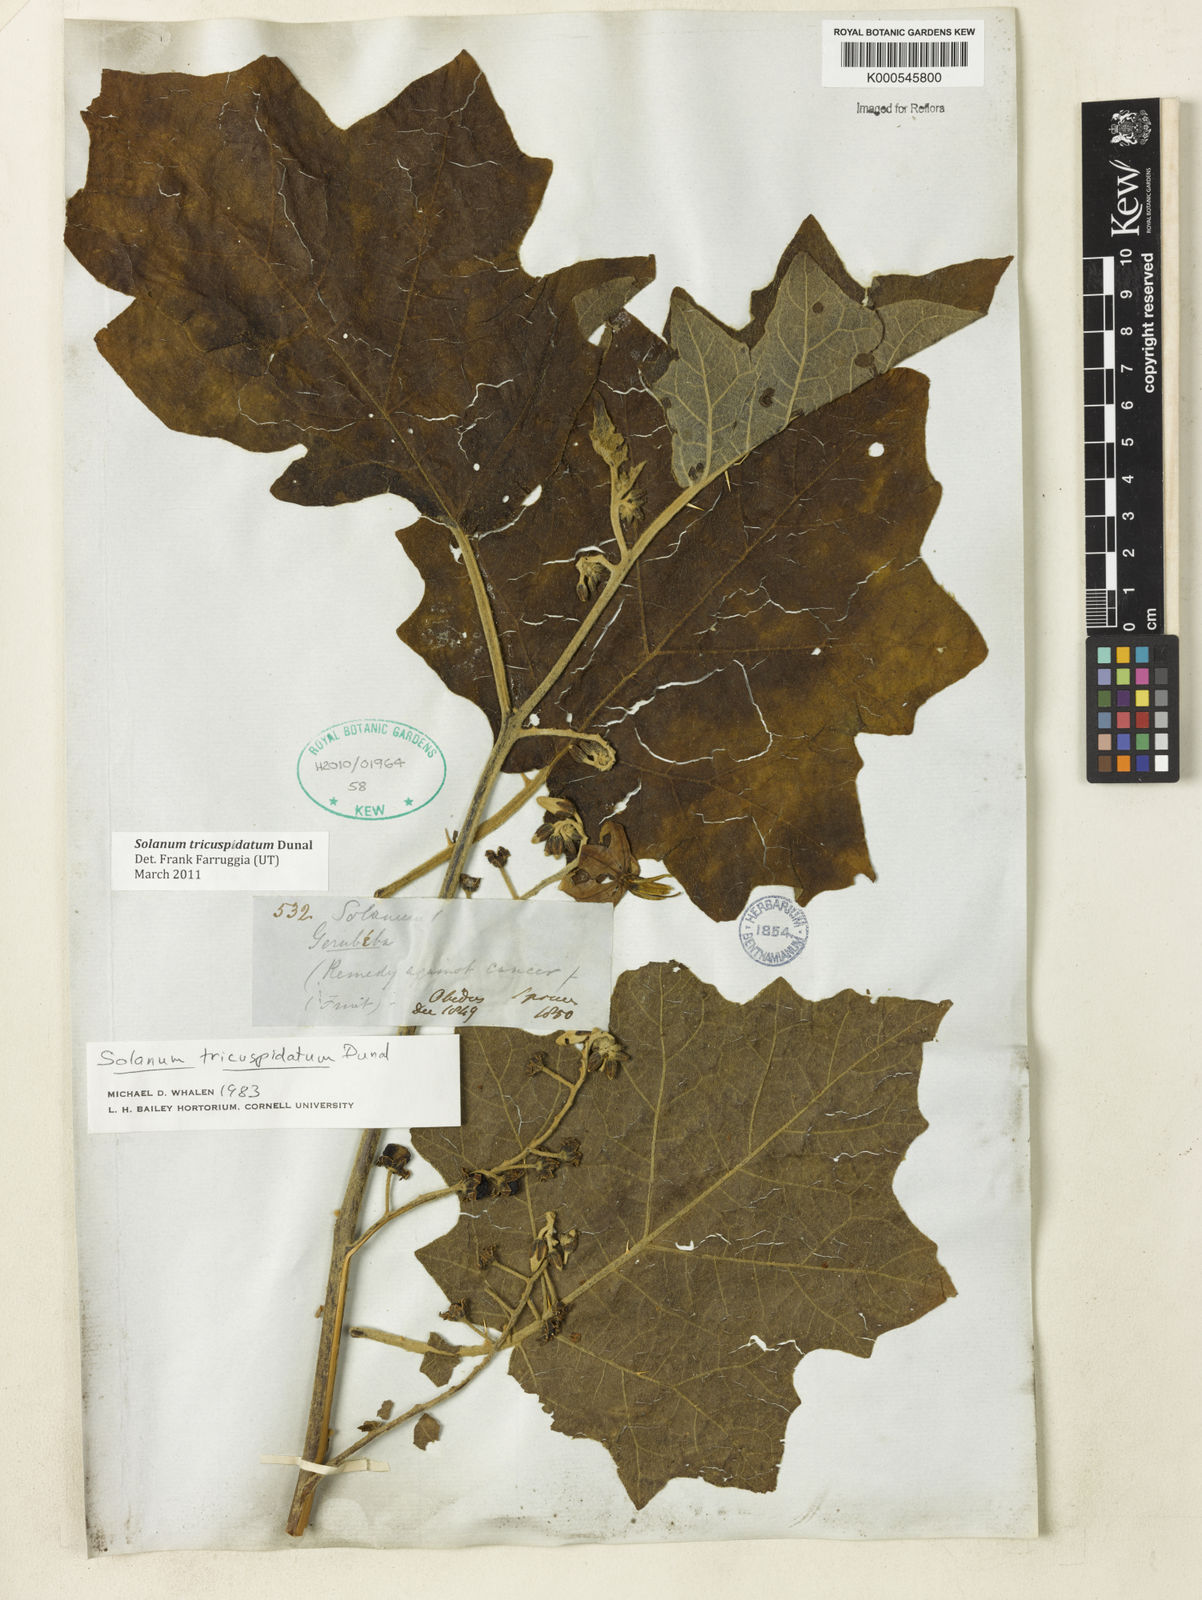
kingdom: Plantae
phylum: Tracheophyta
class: Magnoliopsida
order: Solanales
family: Solanaceae
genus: Solanum
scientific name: Solanum tricuspidatum
